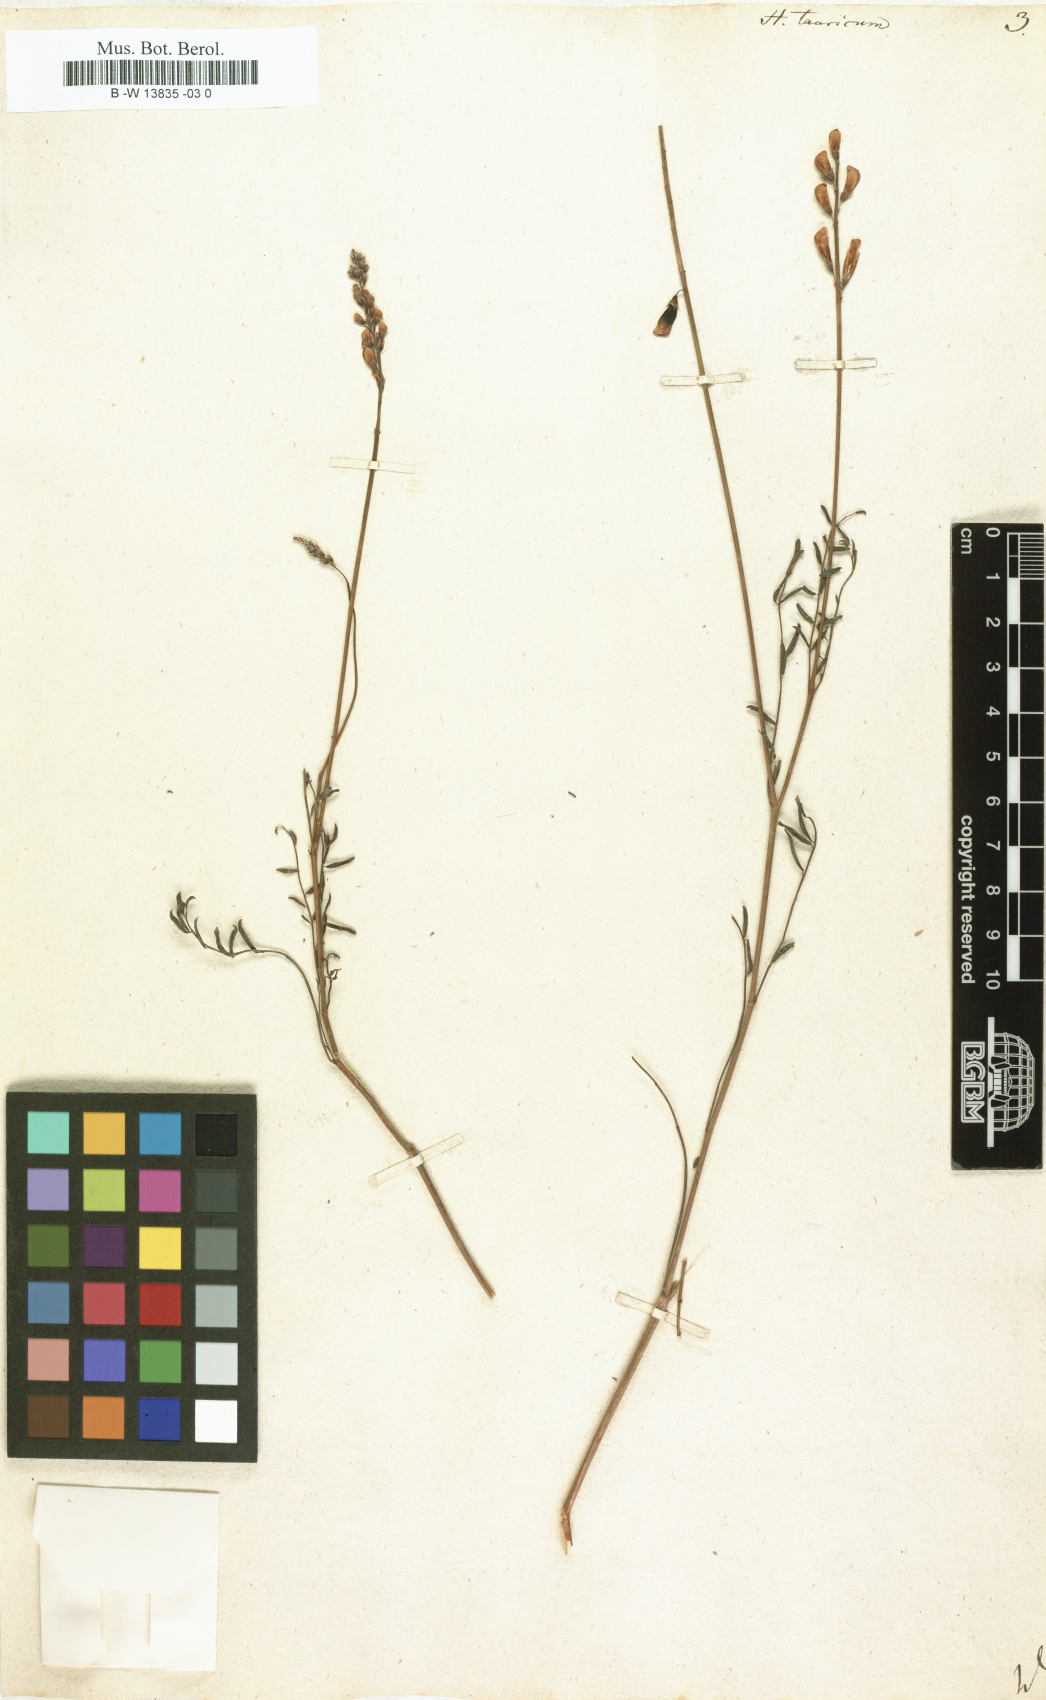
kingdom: Plantae
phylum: Tracheophyta
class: Magnoliopsida
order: Fabales
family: Fabaceae
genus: Hedysarum
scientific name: Hedysarum tauricum
